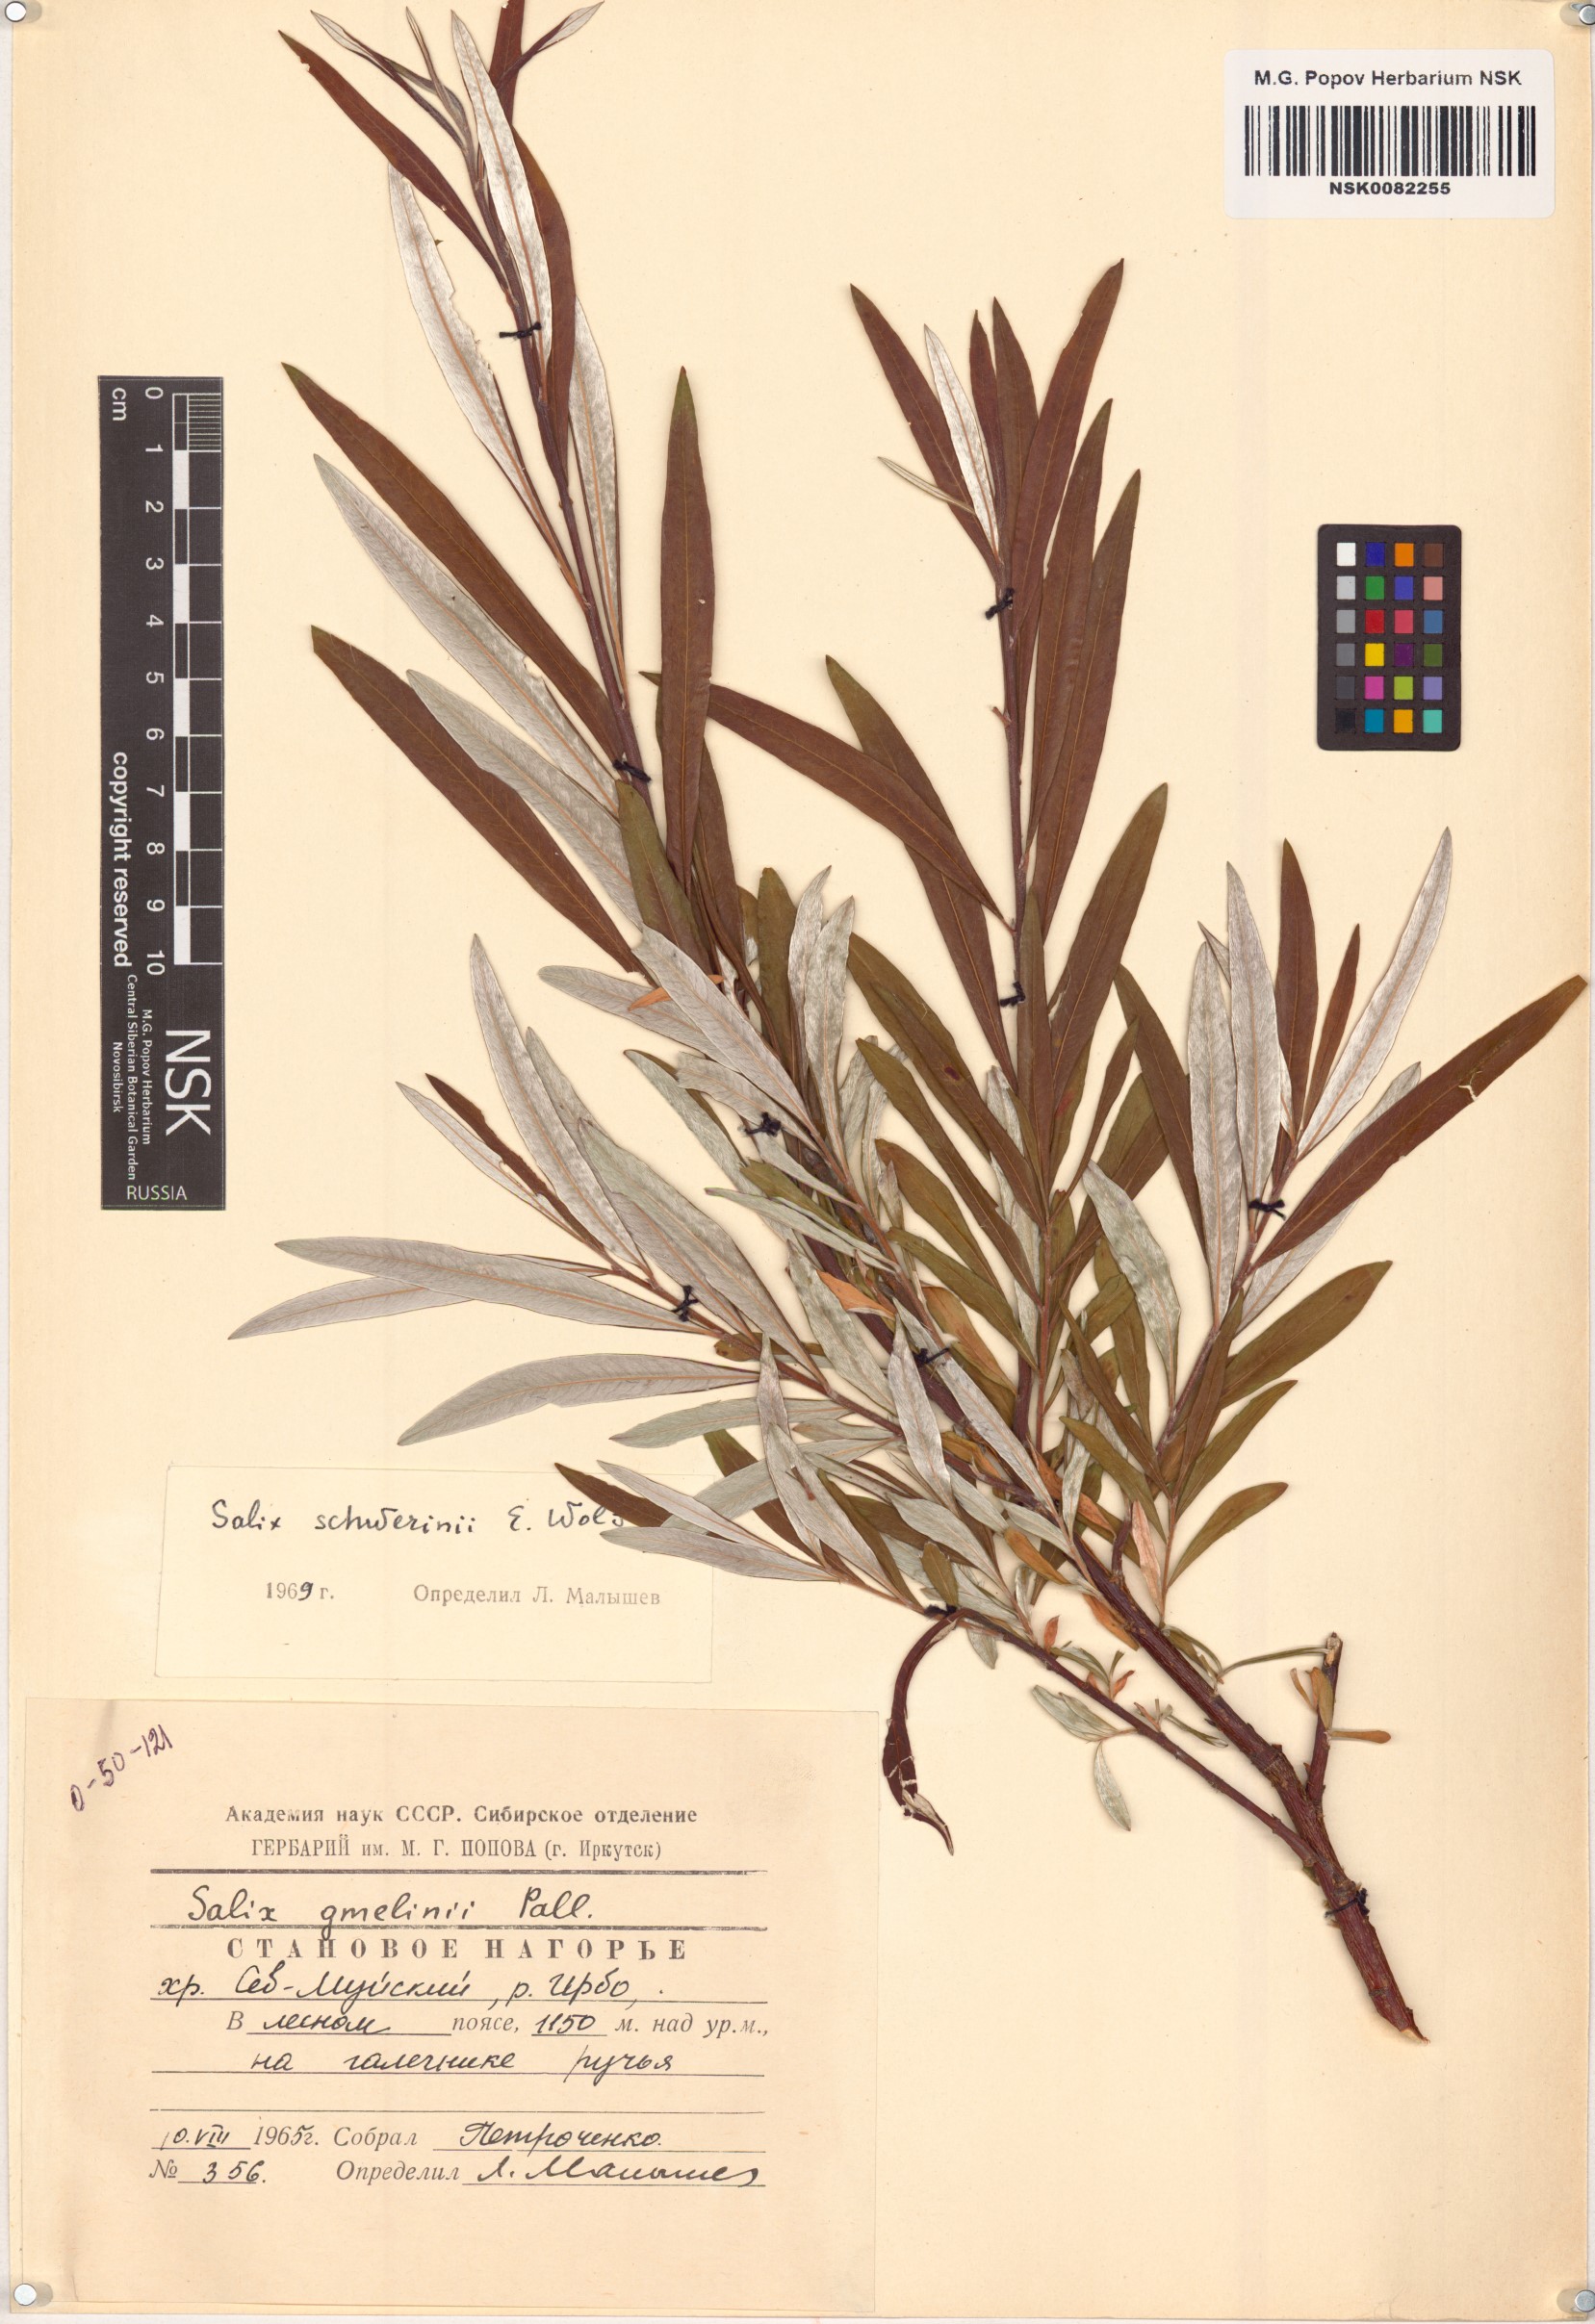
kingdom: Plantae
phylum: Tracheophyta
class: Magnoliopsida
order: Malpighiales
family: Salicaceae
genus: Salix
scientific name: Salix schwerinii
